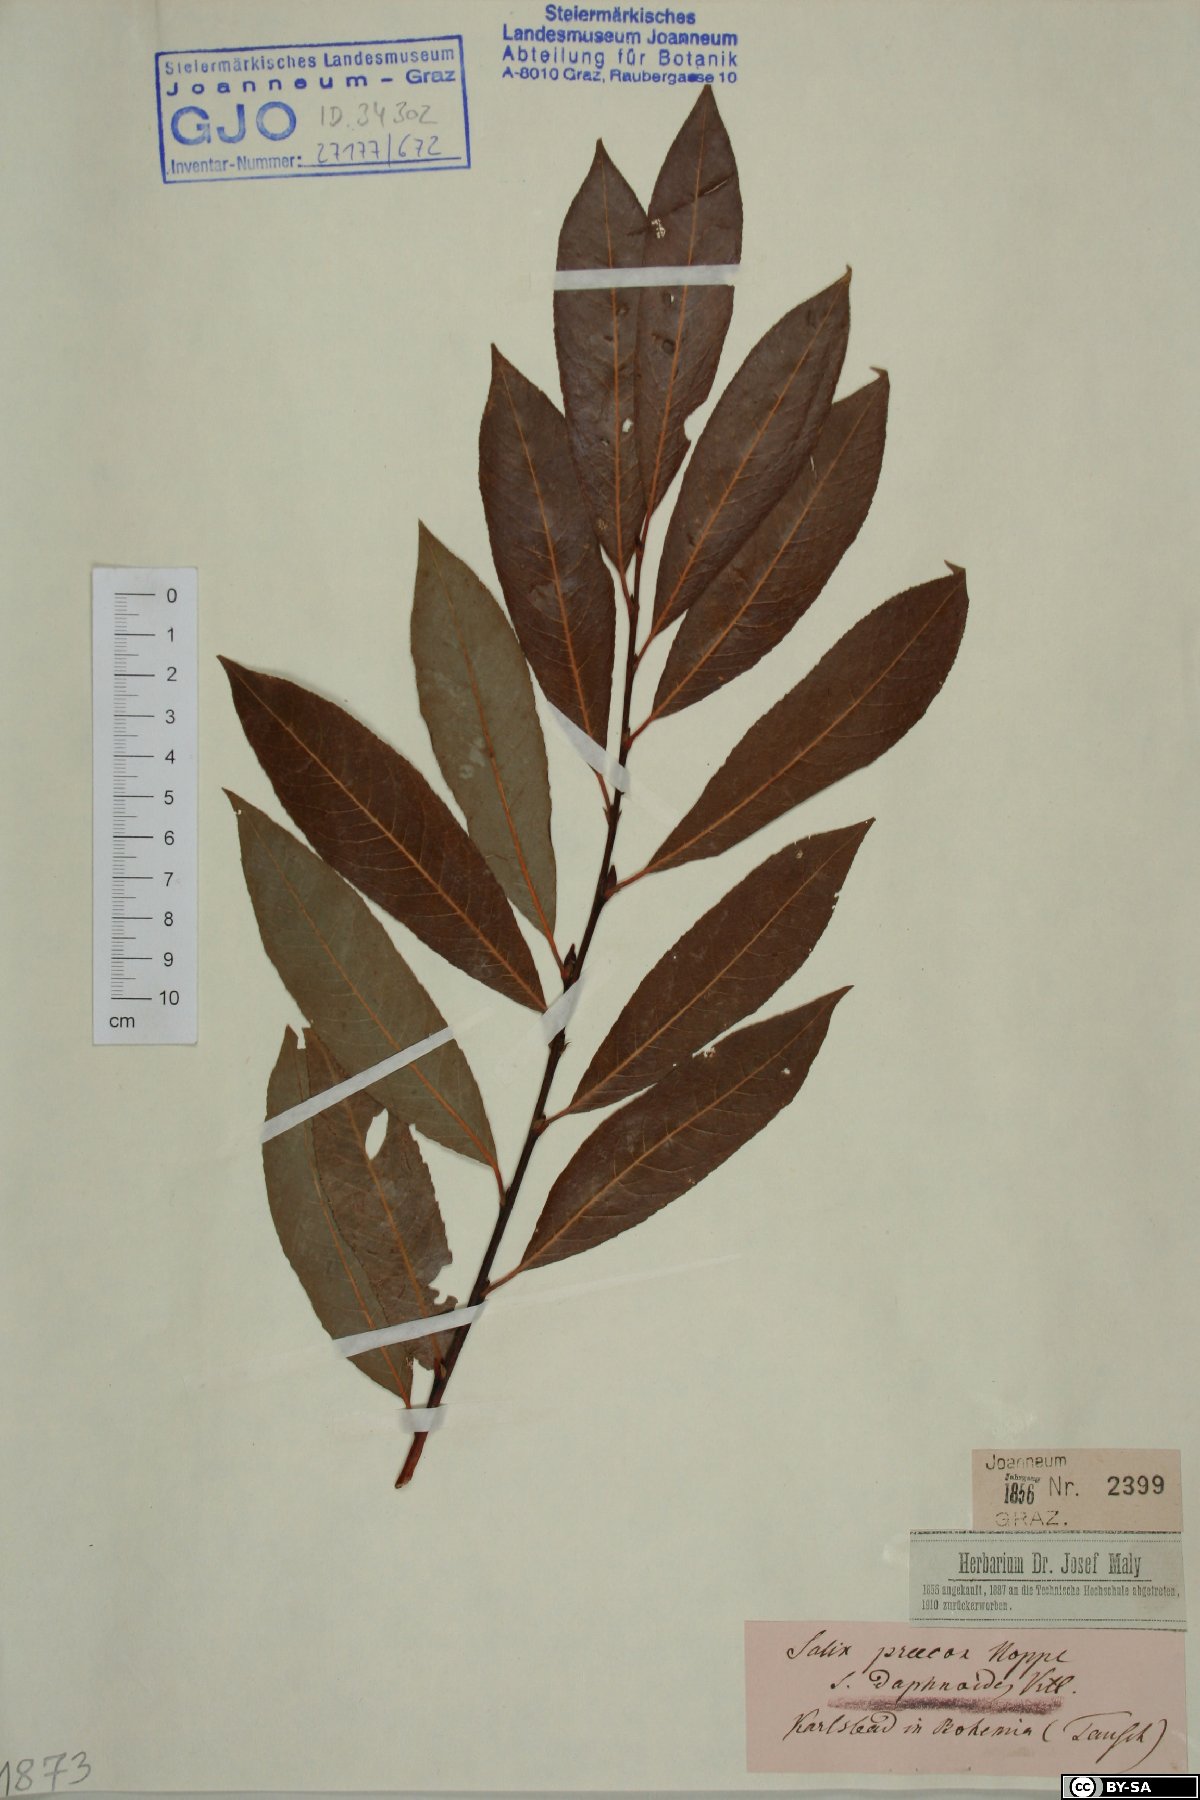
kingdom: Plantae
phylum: Tracheophyta
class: Magnoliopsida
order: Malpighiales
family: Salicaceae
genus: Salix
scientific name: Salix daphnoides
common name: European violet-willow
